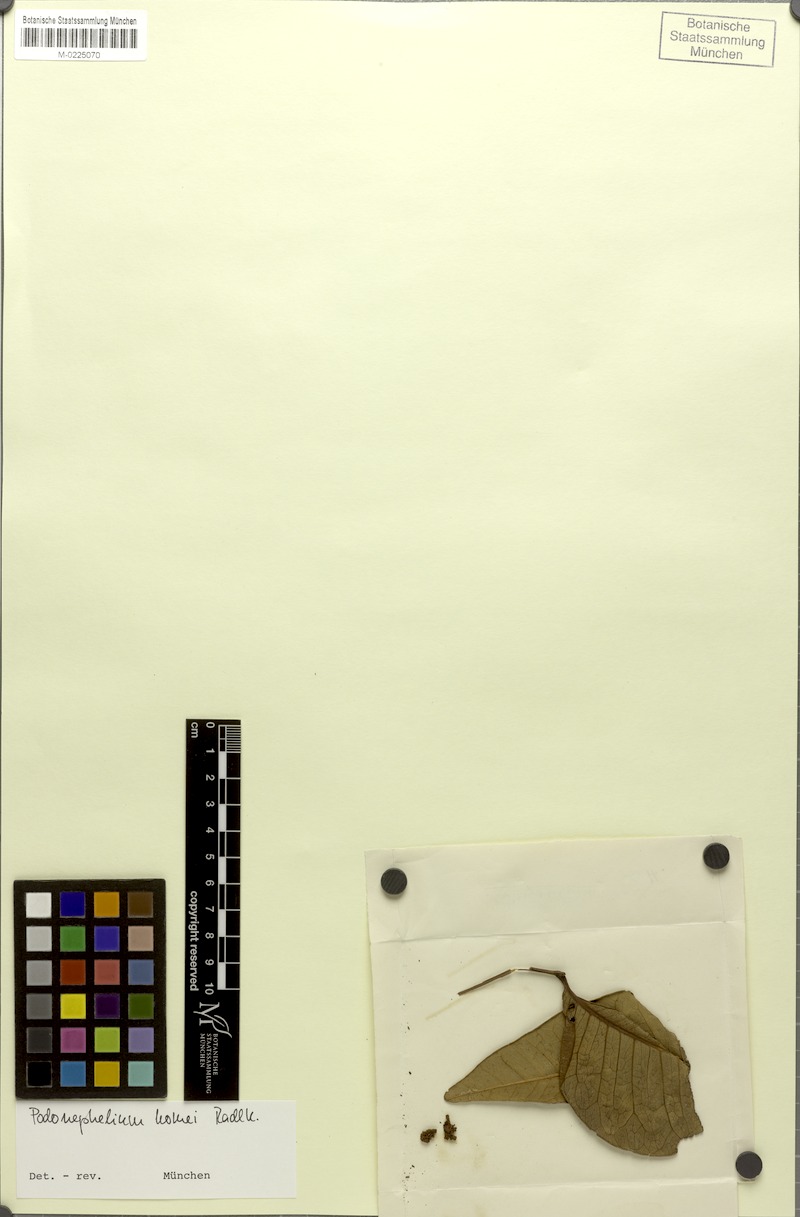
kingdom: Plantae
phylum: Tracheophyta
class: Magnoliopsida
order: Sapindales
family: Sapindaceae
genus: Podonephelium
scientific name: Podonephelium homei
